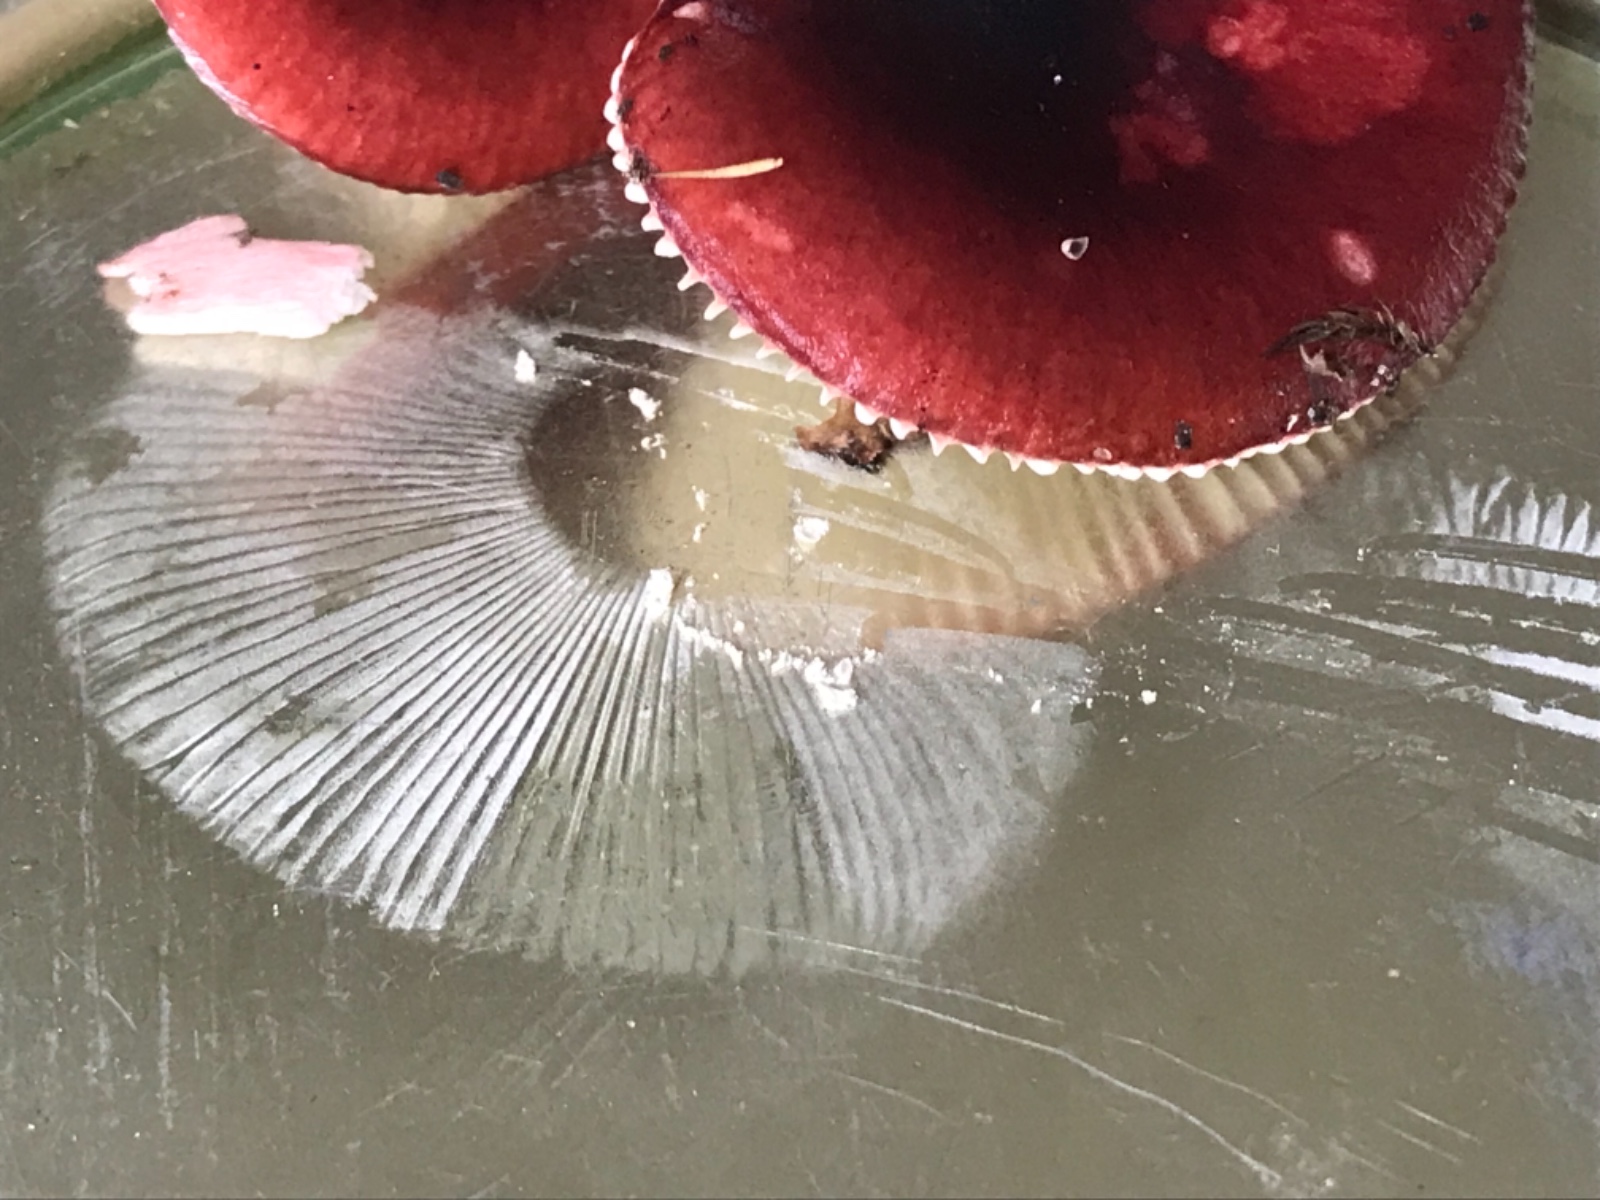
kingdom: Fungi
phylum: Basidiomycota
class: Agaricomycetes
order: Russulales
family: Russulaceae
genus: Russula
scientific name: Russula gracillima
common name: slank skørhat
